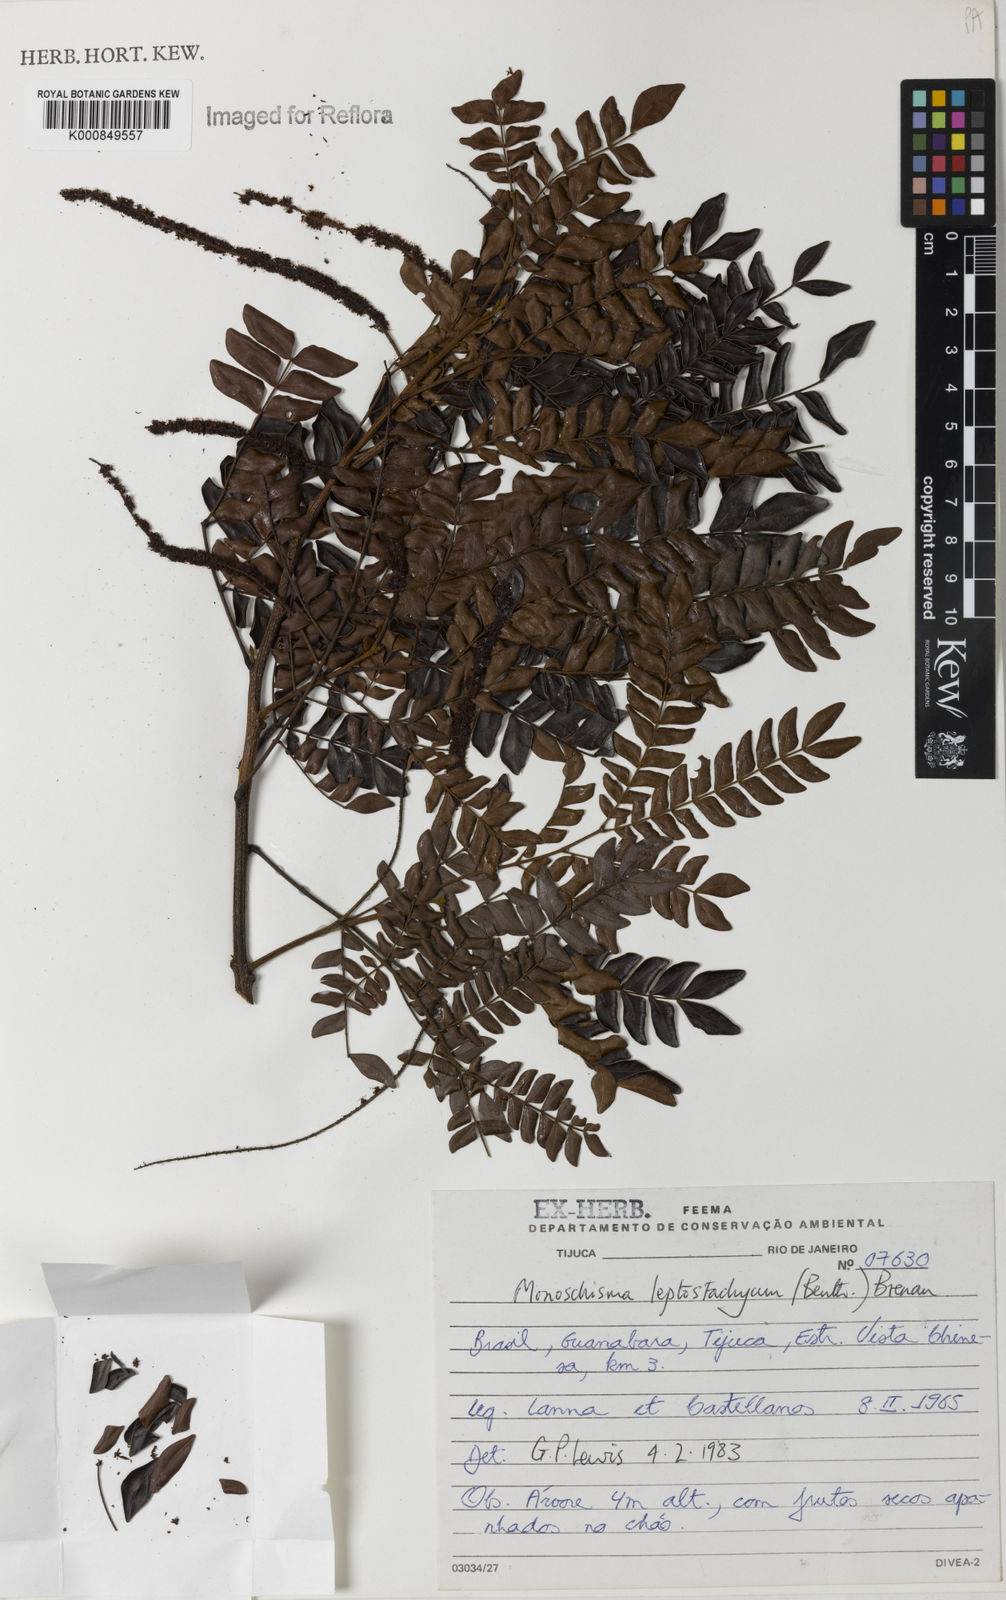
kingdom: Plantae
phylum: Tracheophyta
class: Magnoliopsida
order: Fabales
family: Fabaceae
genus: Pseudopiptadenia
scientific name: Pseudopiptadenia leptostachya
